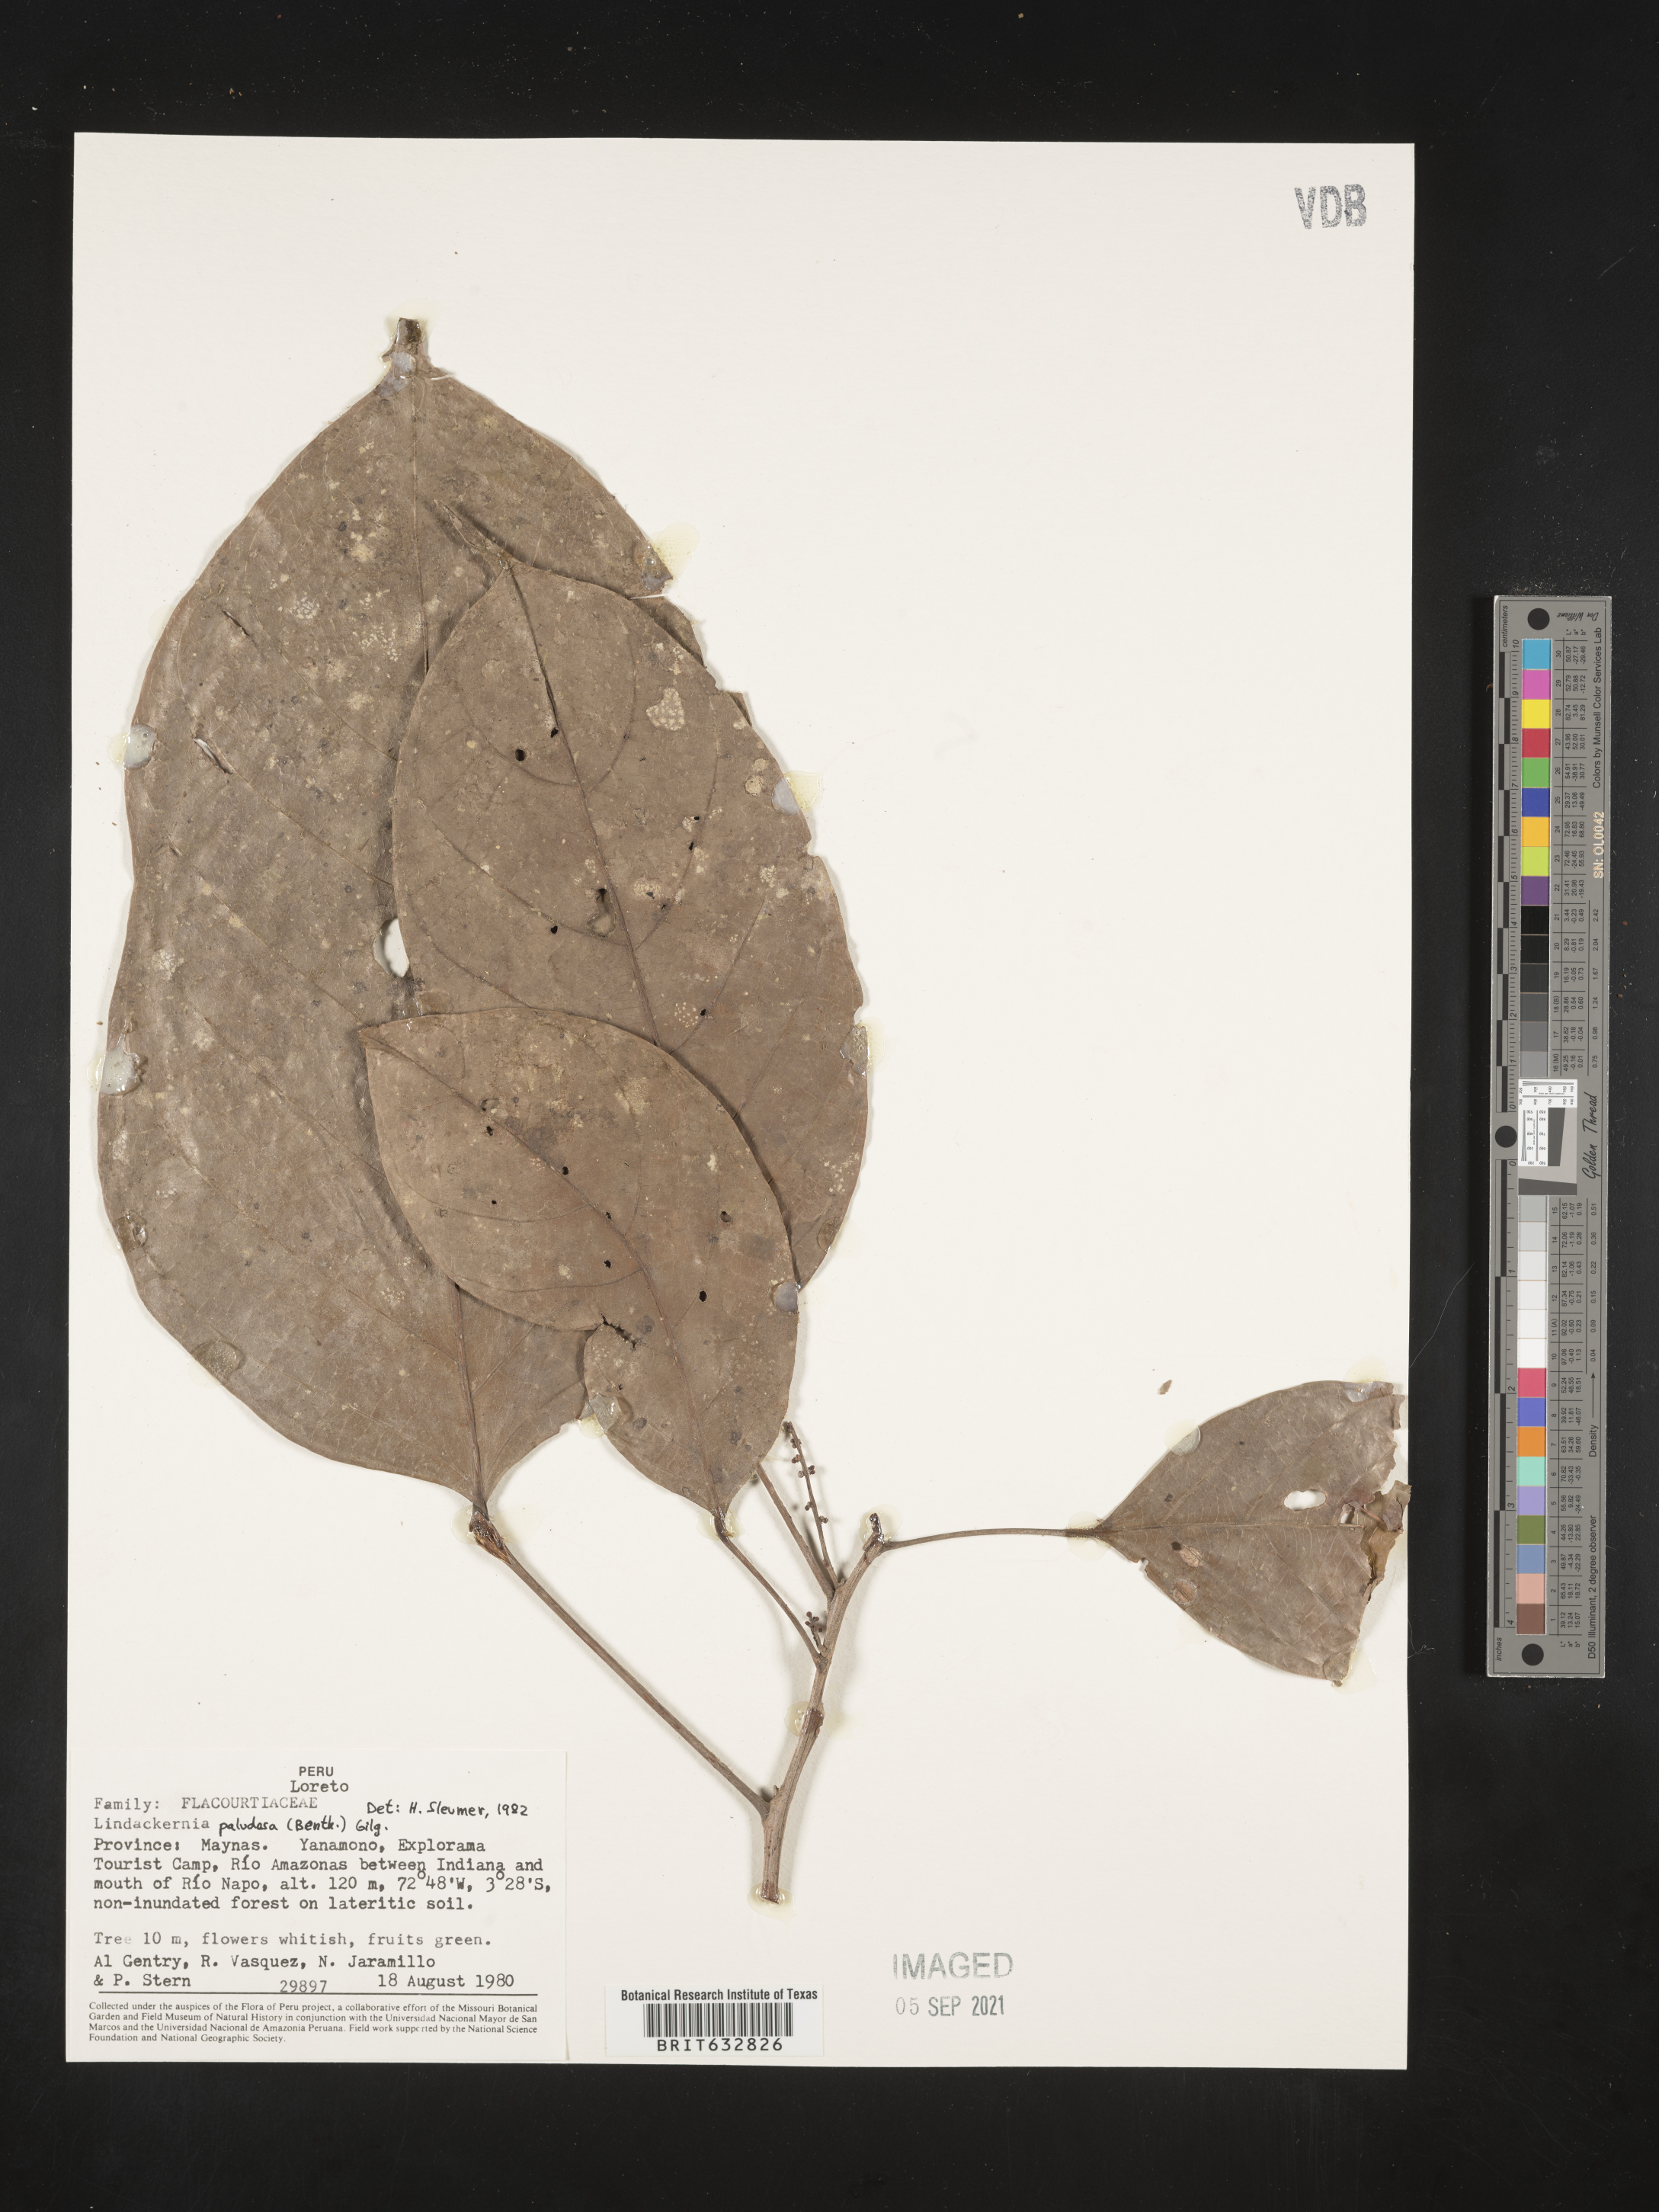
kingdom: Plantae
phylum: Tracheophyta
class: Magnoliopsida
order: Malpighiales
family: Achariaceae
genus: Lindackeria
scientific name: Lindackeria paludosa
